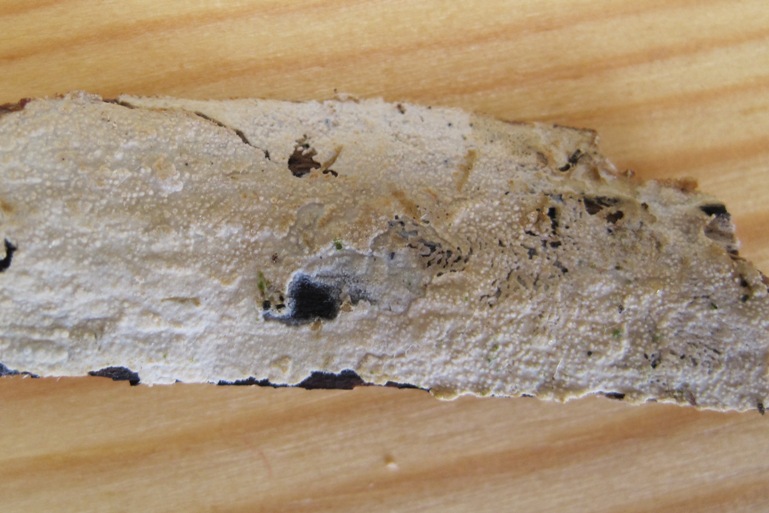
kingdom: Fungi
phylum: Basidiomycota
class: Agaricomycetes
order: Polyporales
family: Hyphodermataceae
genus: Hyphoderma
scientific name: Hyphoderma setigerum
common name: håret kalkskind
